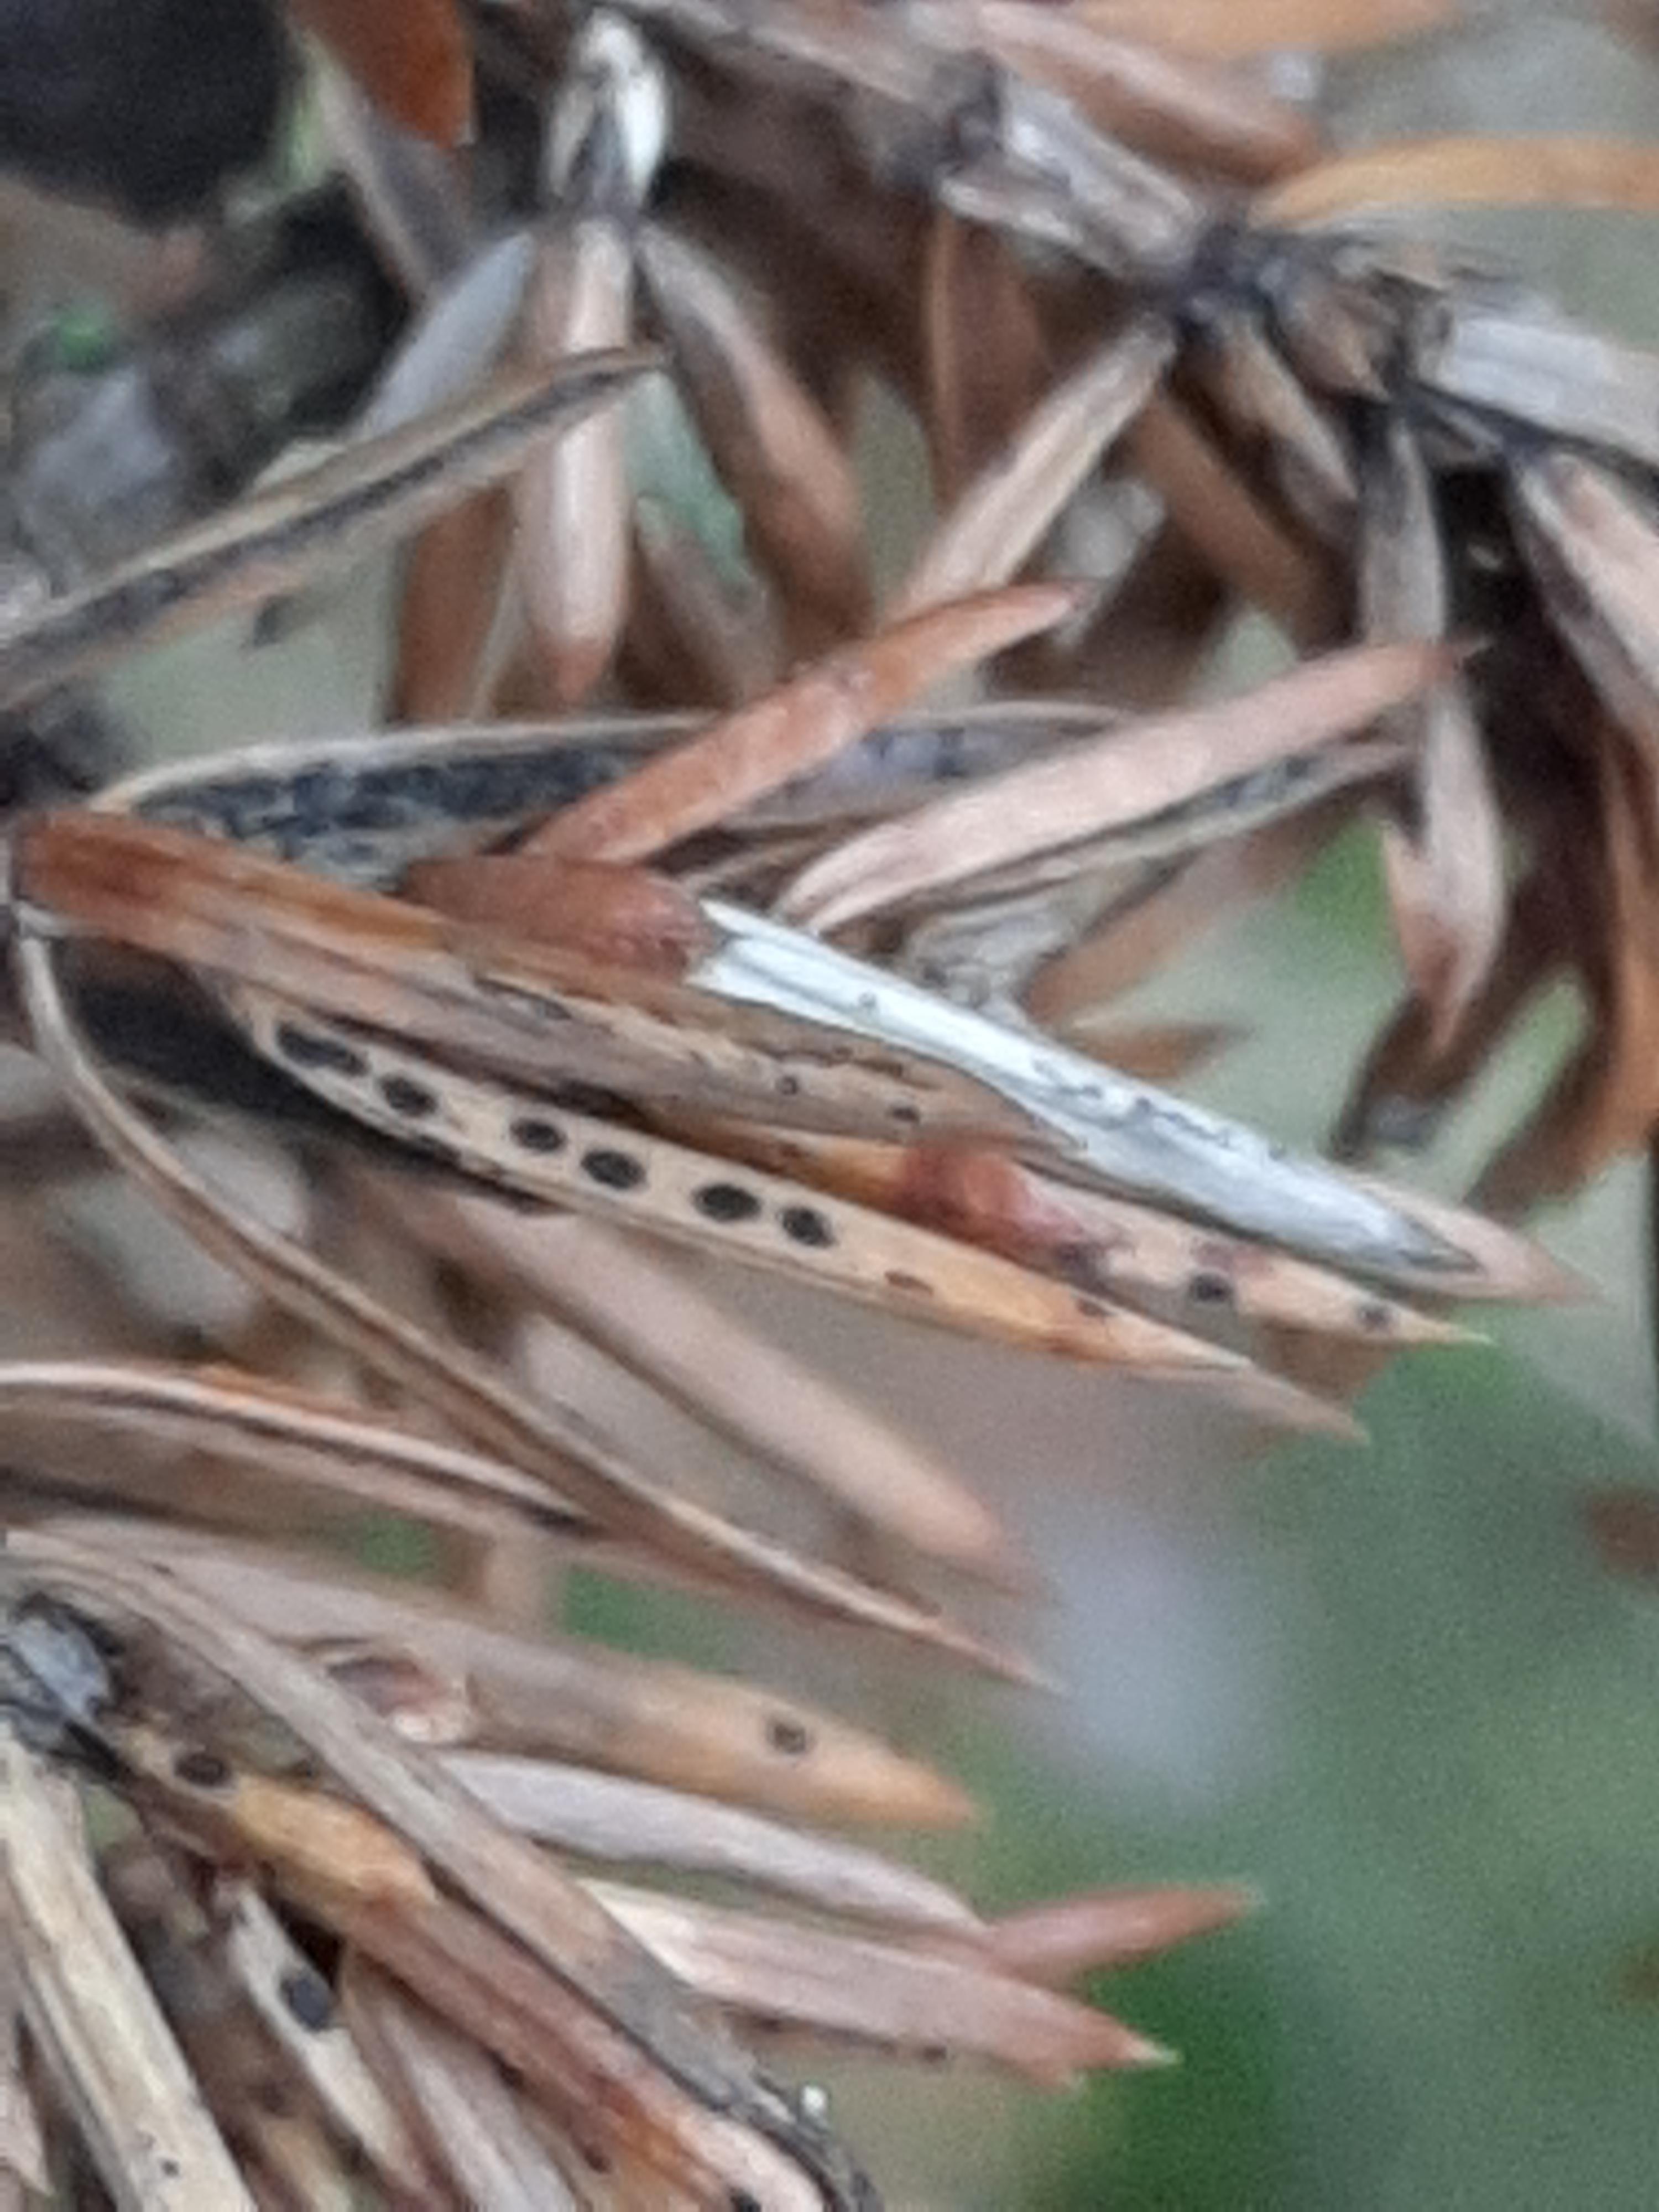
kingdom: Fungi
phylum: Ascomycota
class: Leotiomycetes
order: Rhytismatales
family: Rhytismataceae
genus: Lophodermium
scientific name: Lophodermium juniperinum
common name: ene-fureplet
